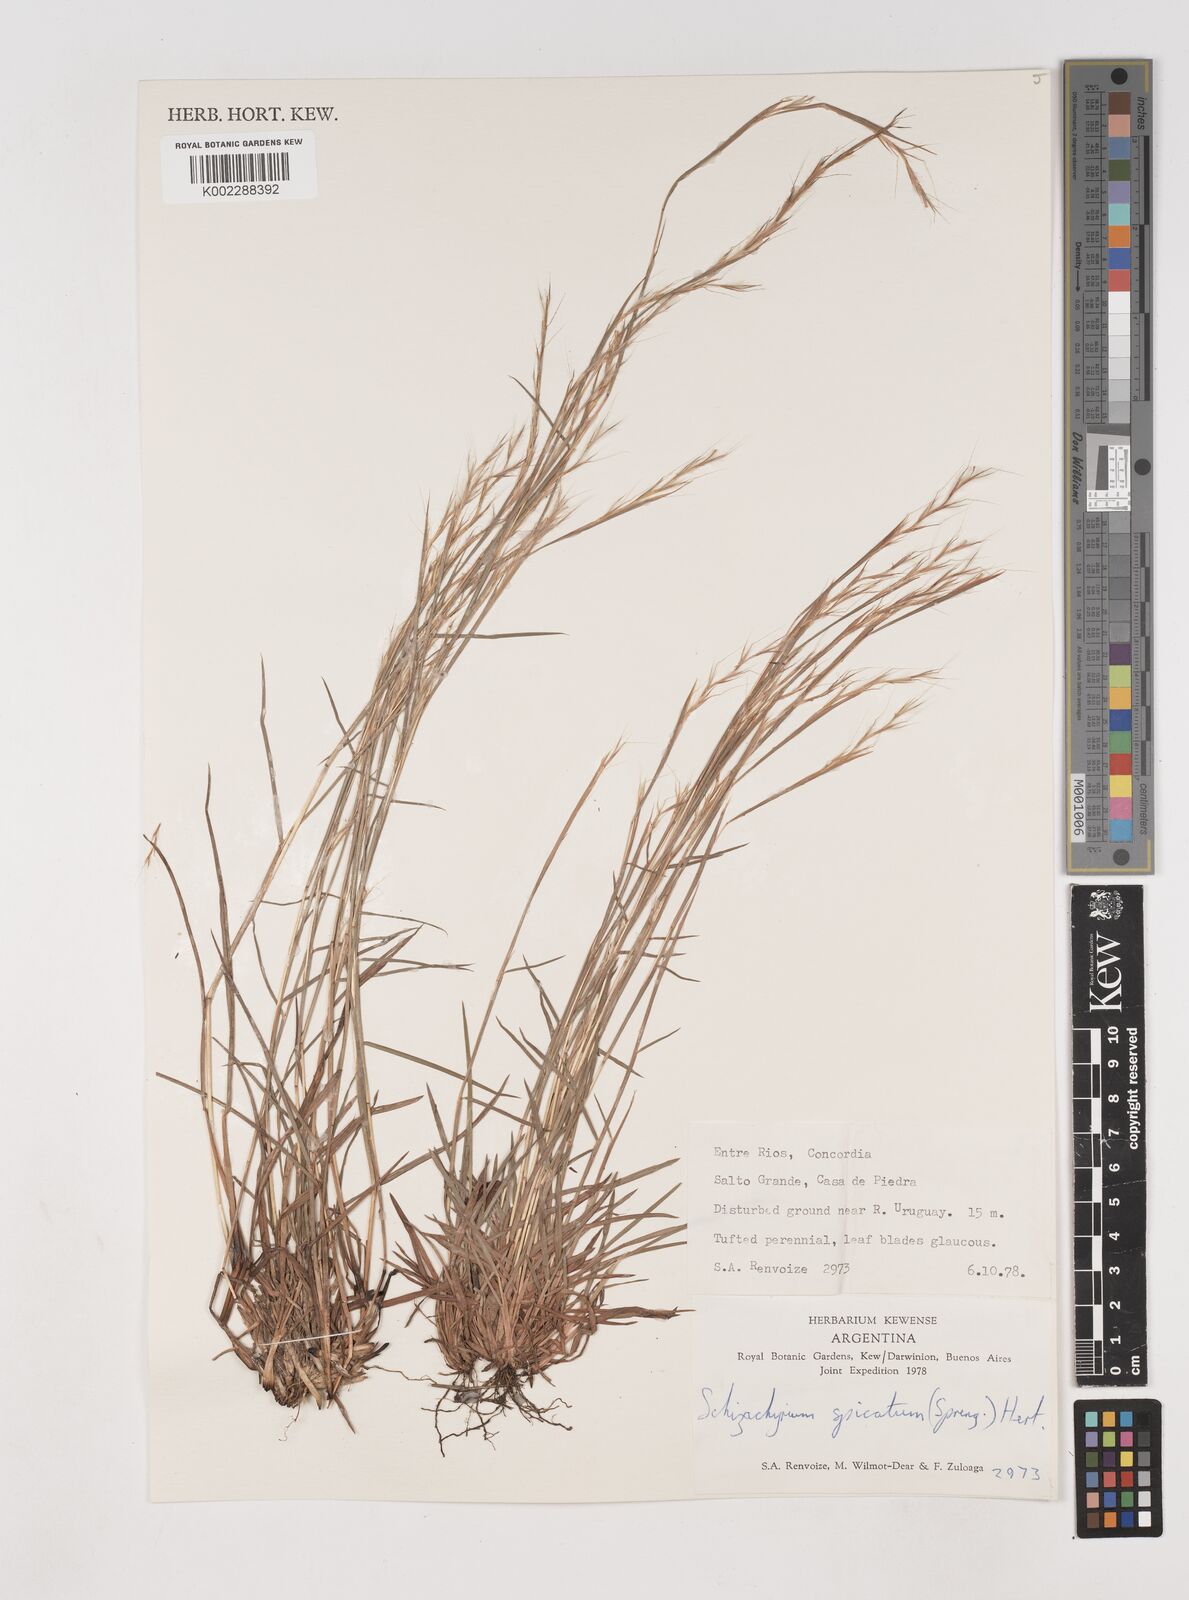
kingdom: Plantae
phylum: Tracheophyta
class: Liliopsida
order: Poales
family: Poaceae
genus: Schizachyrium
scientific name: Schizachyrium spicatum
